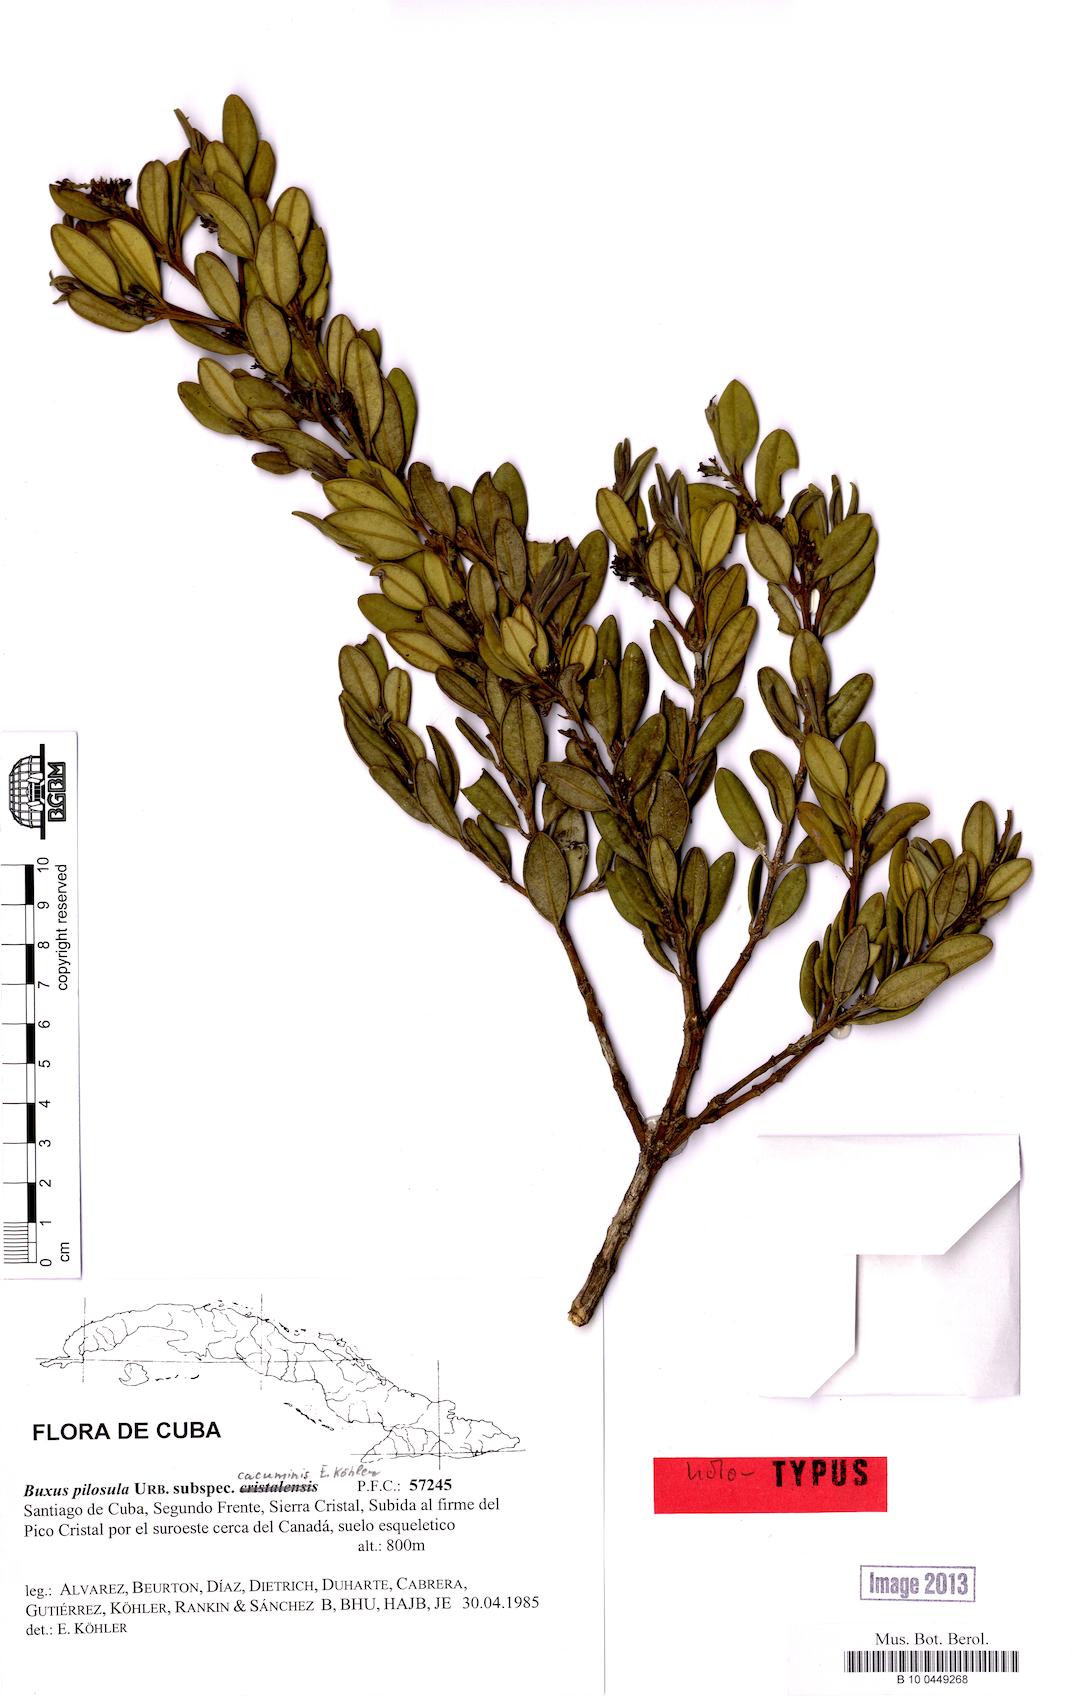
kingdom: Plantae
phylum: Tracheophyta
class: Magnoliopsida
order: Buxales
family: Buxaceae
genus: Buxus
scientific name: Buxus pilosula
